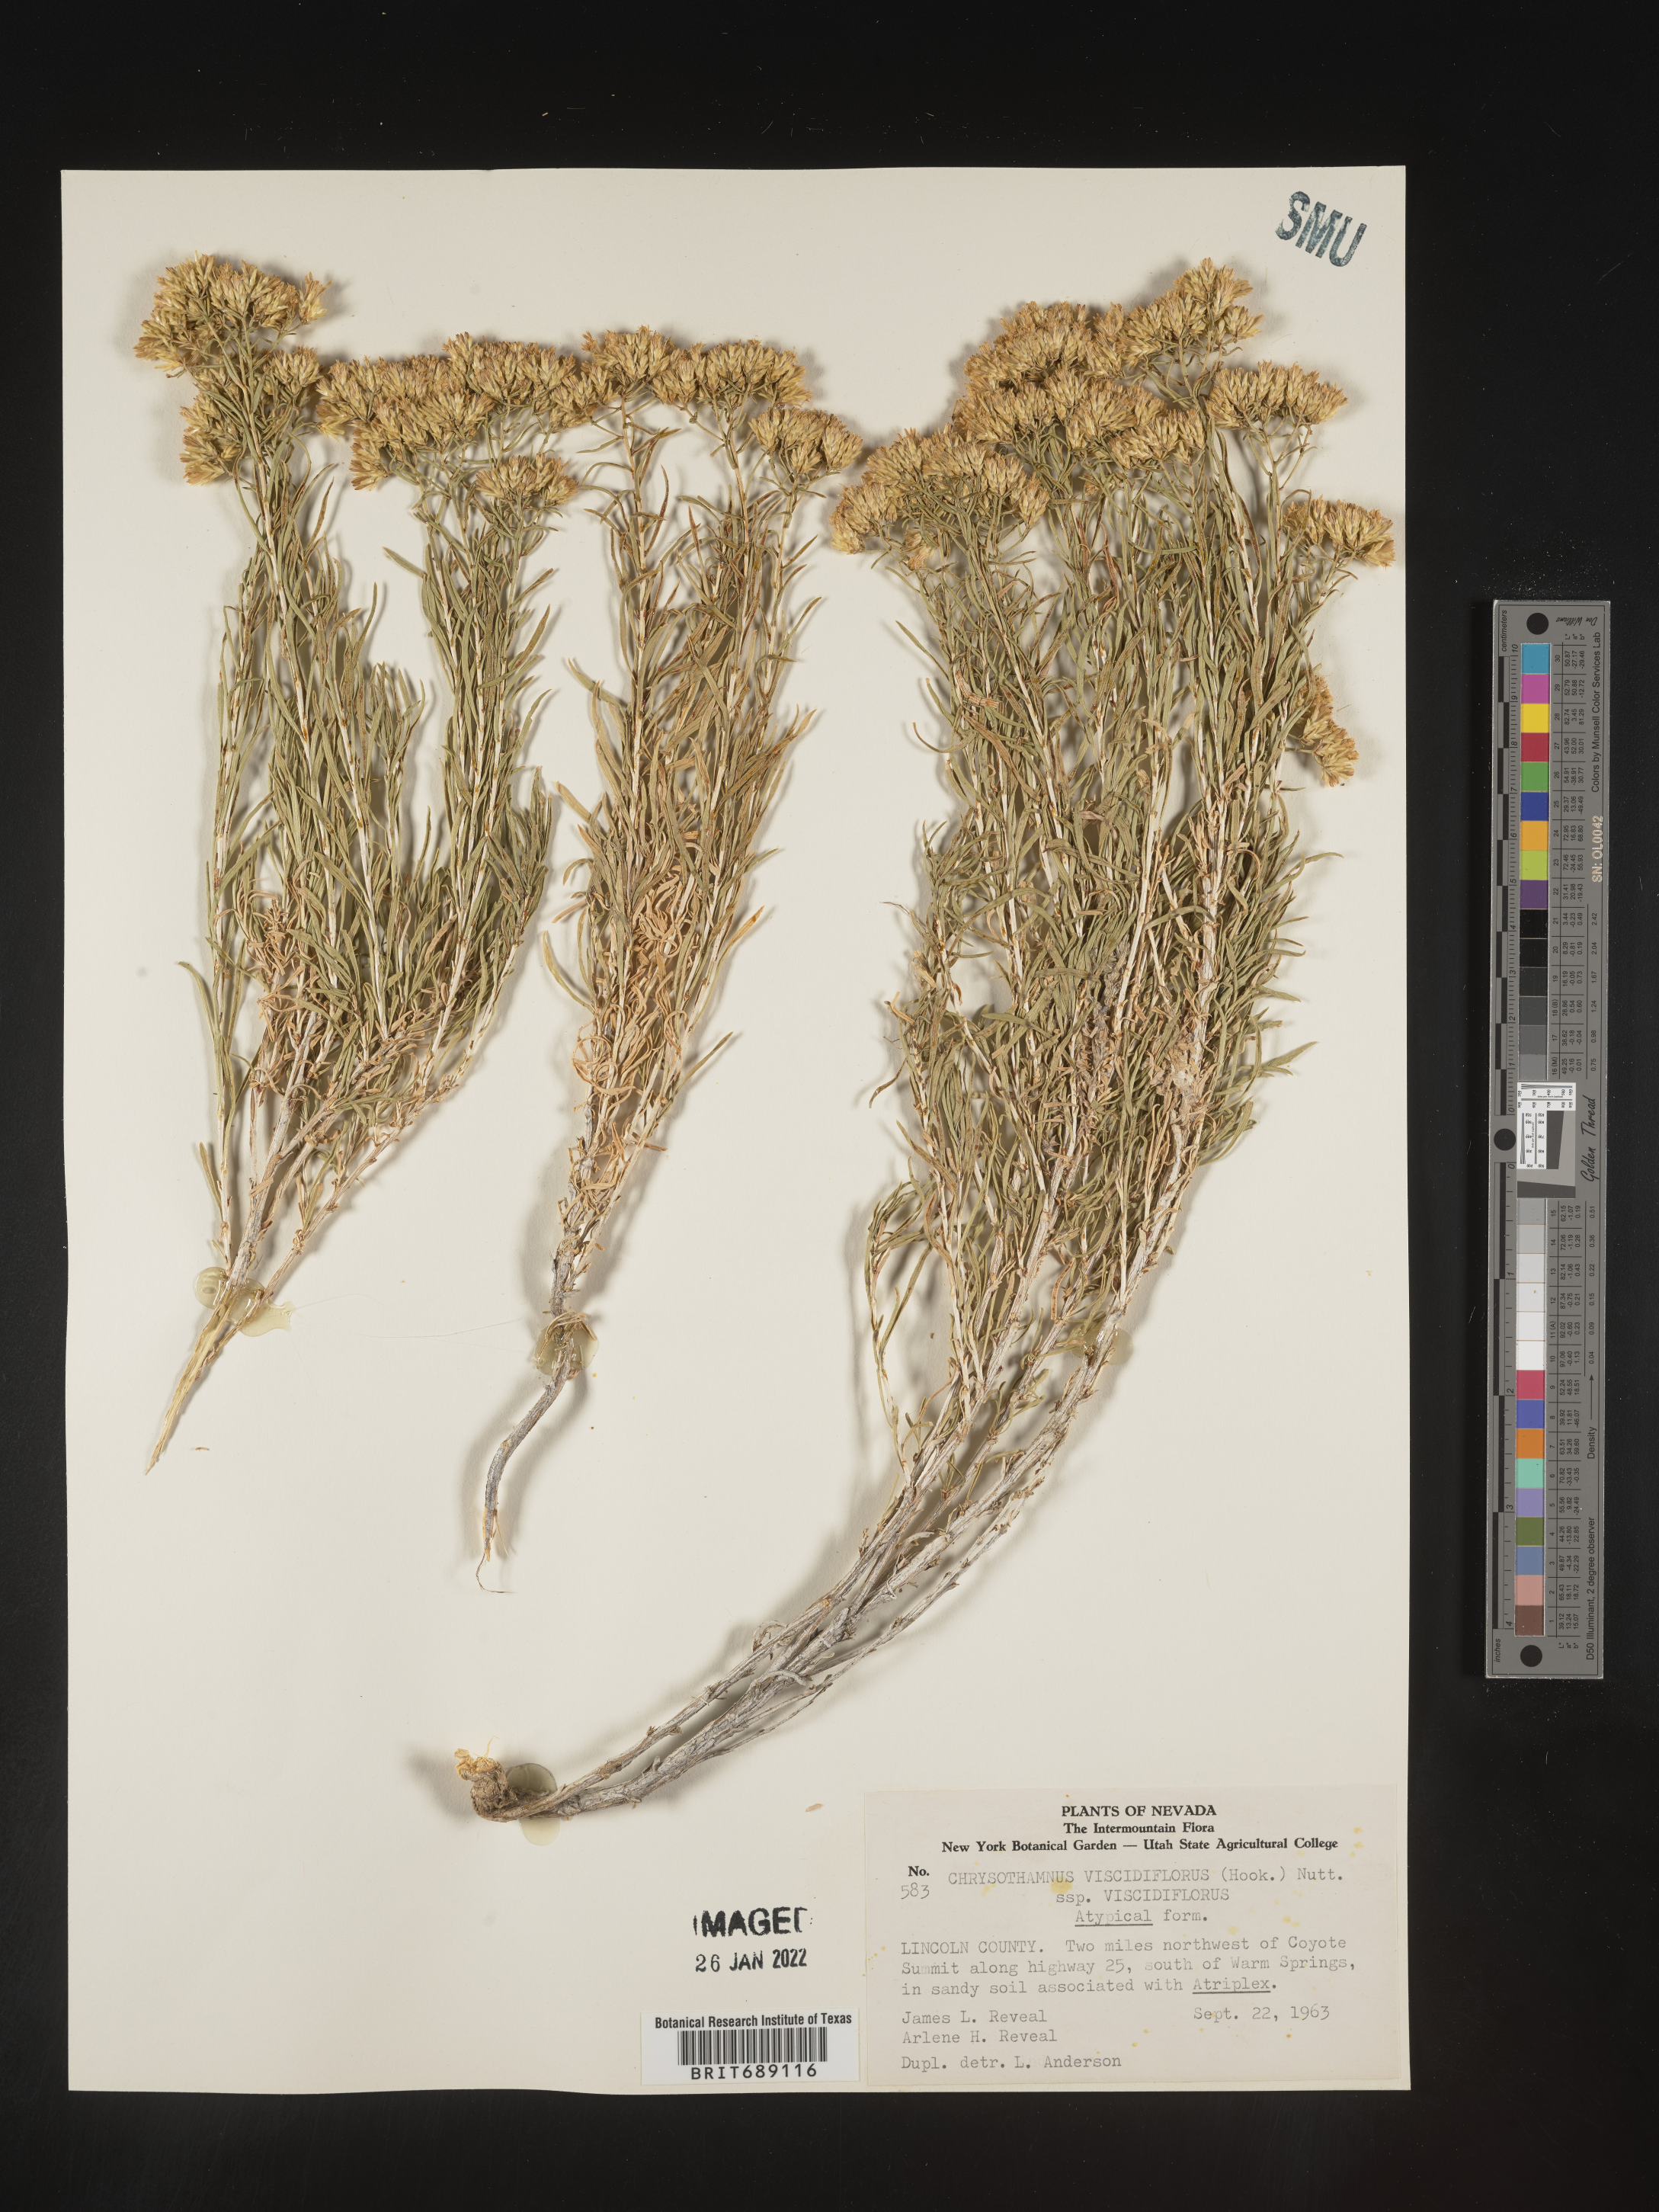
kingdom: Plantae
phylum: Tracheophyta
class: Magnoliopsida
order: Asterales
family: Asteraceae
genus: Chrysothamnus
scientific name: Chrysothamnus viscidiflorus
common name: Yellow rabbitbrush
